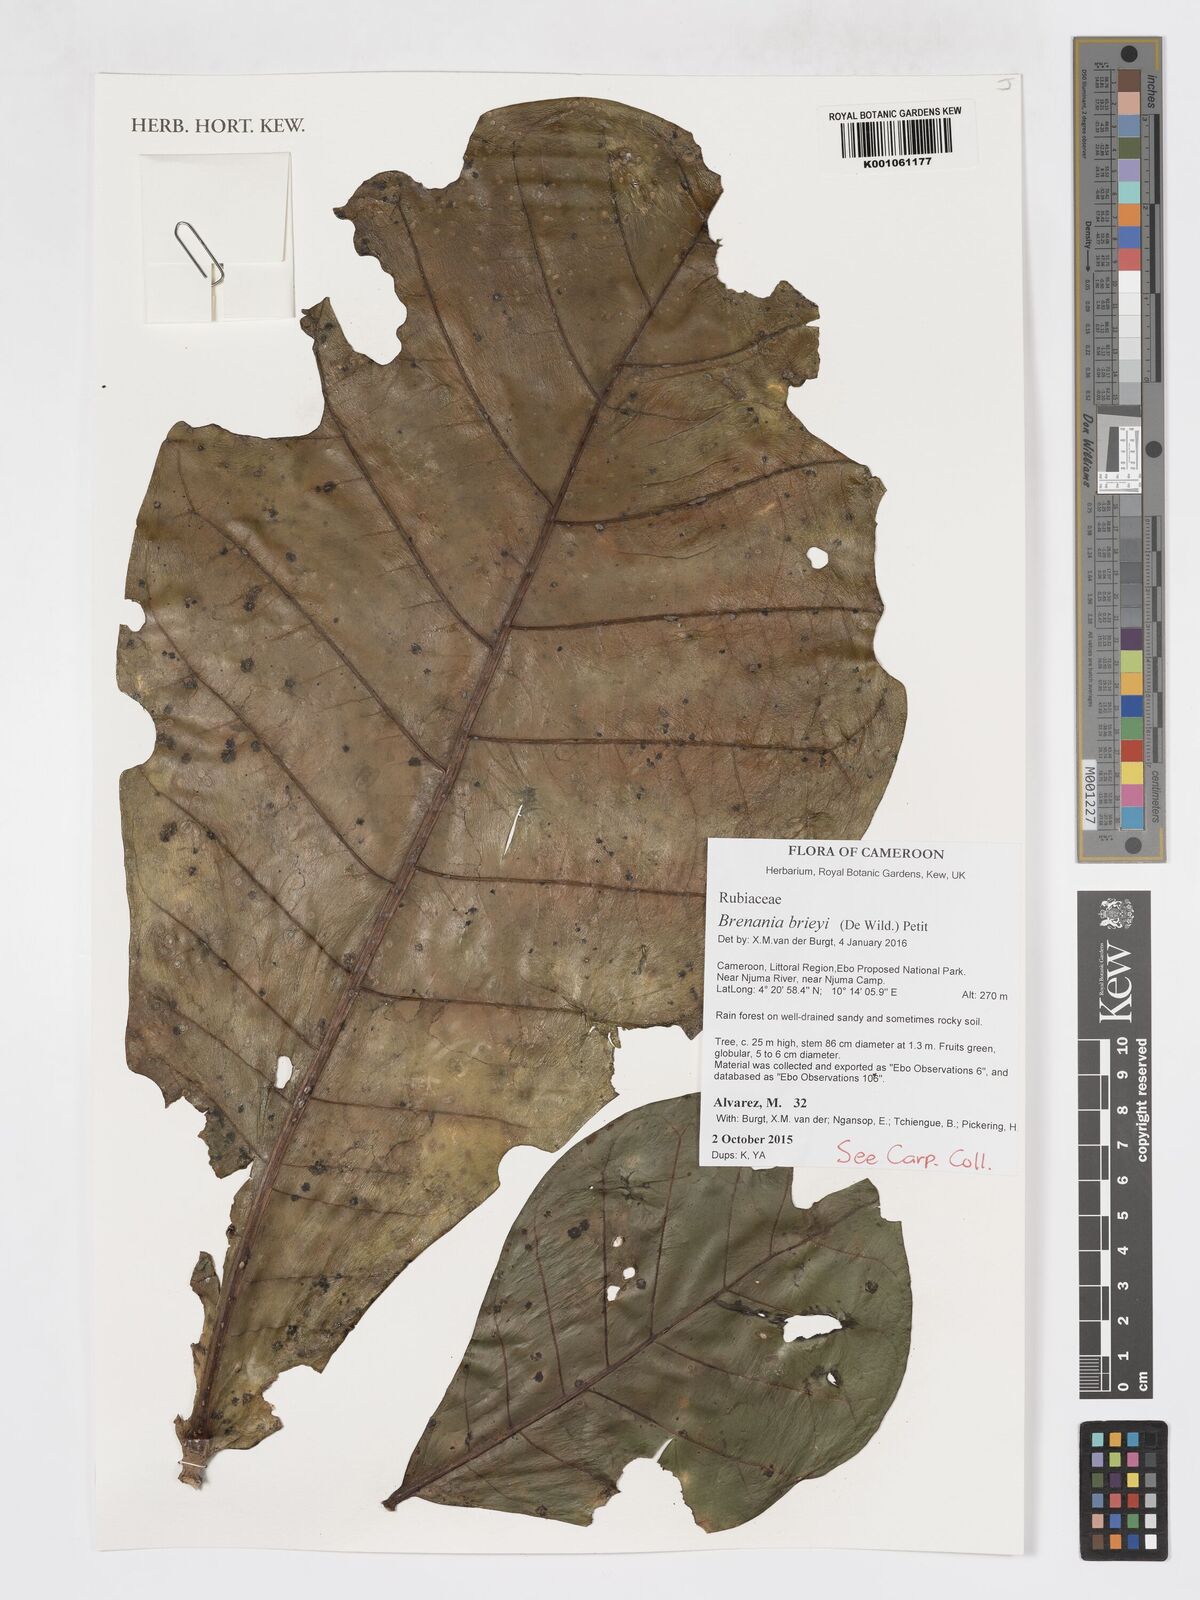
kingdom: Plantae
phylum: Tracheophyta
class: Magnoliopsida
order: Gentianales
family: Rubiaceae
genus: Brenania
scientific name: Brenania brieyi
